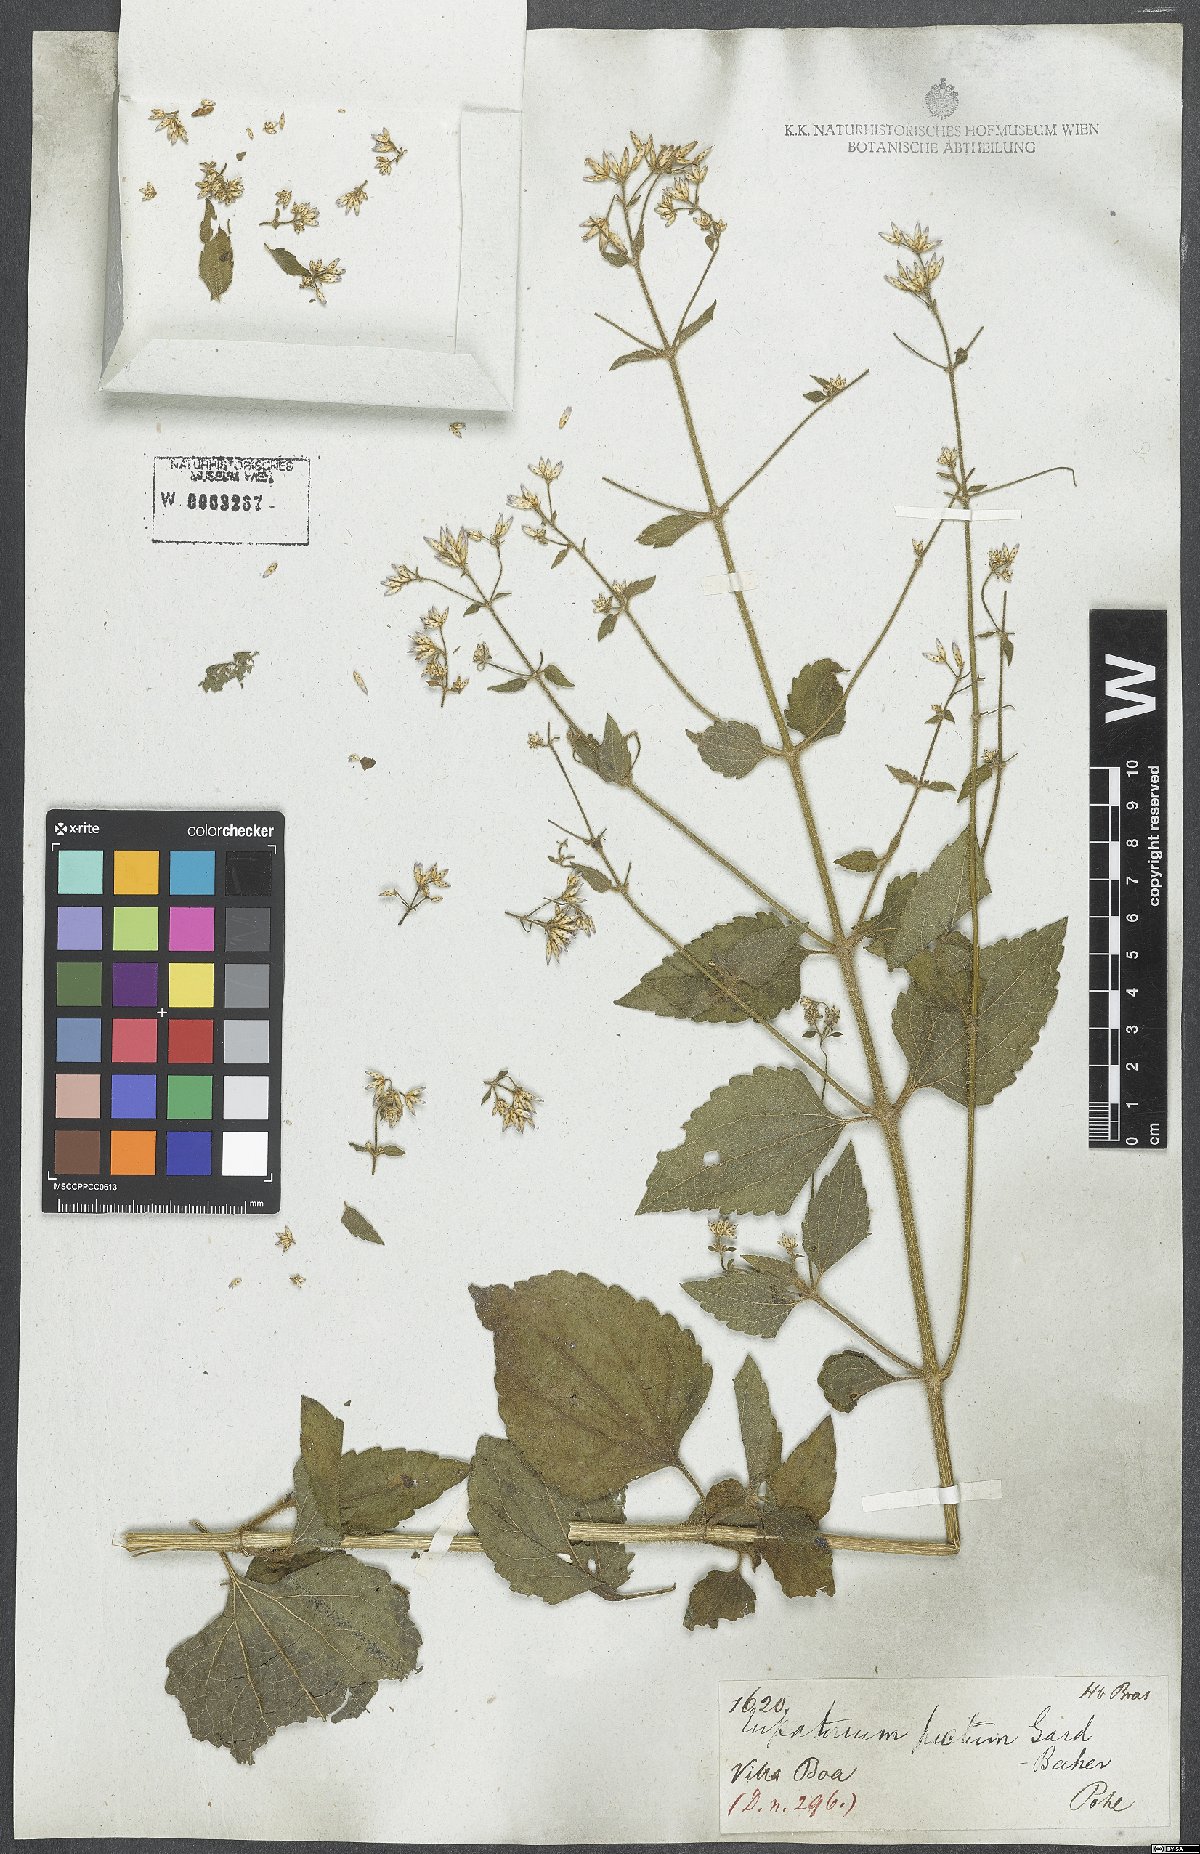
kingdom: Plantae
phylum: Tracheophyta
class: Magnoliopsida
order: Asterales
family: Asteraceae
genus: Chromolaena
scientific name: Chromolaena picta
